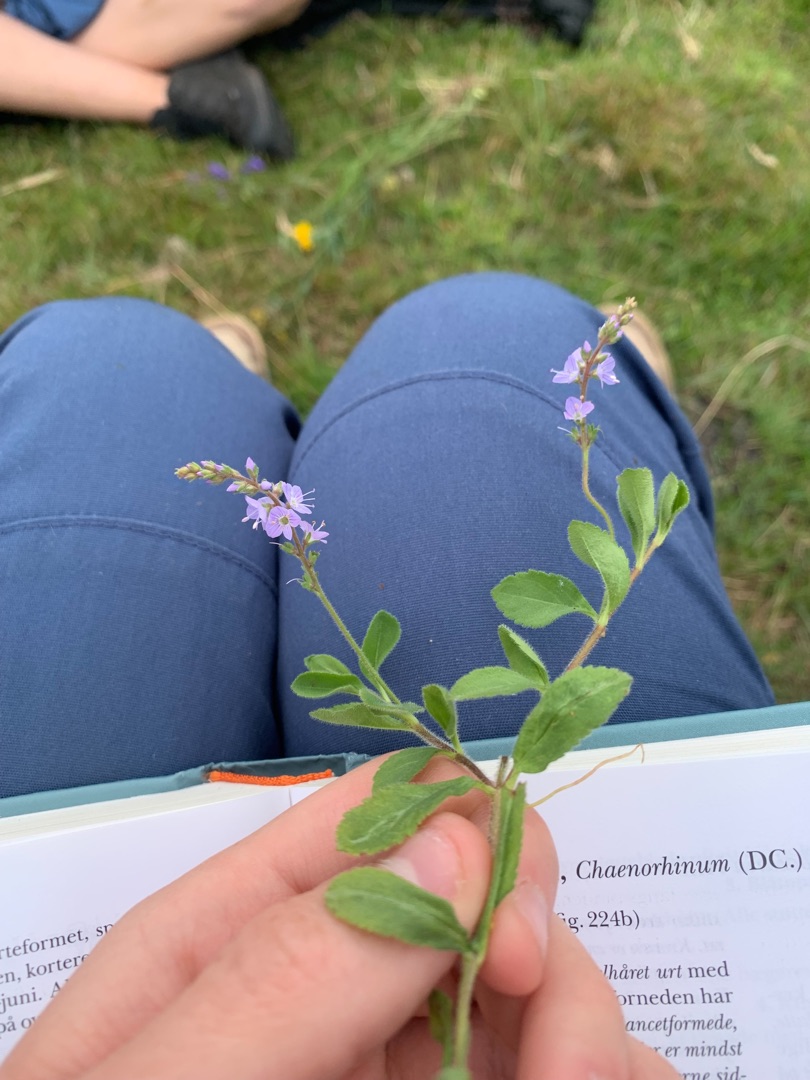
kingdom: Plantae
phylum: Tracheophyta
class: Magnoliopsida
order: Lamiales
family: Plantaginaceae
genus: Veronica
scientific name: Veronica officinalis
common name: Læge-ærenpris
